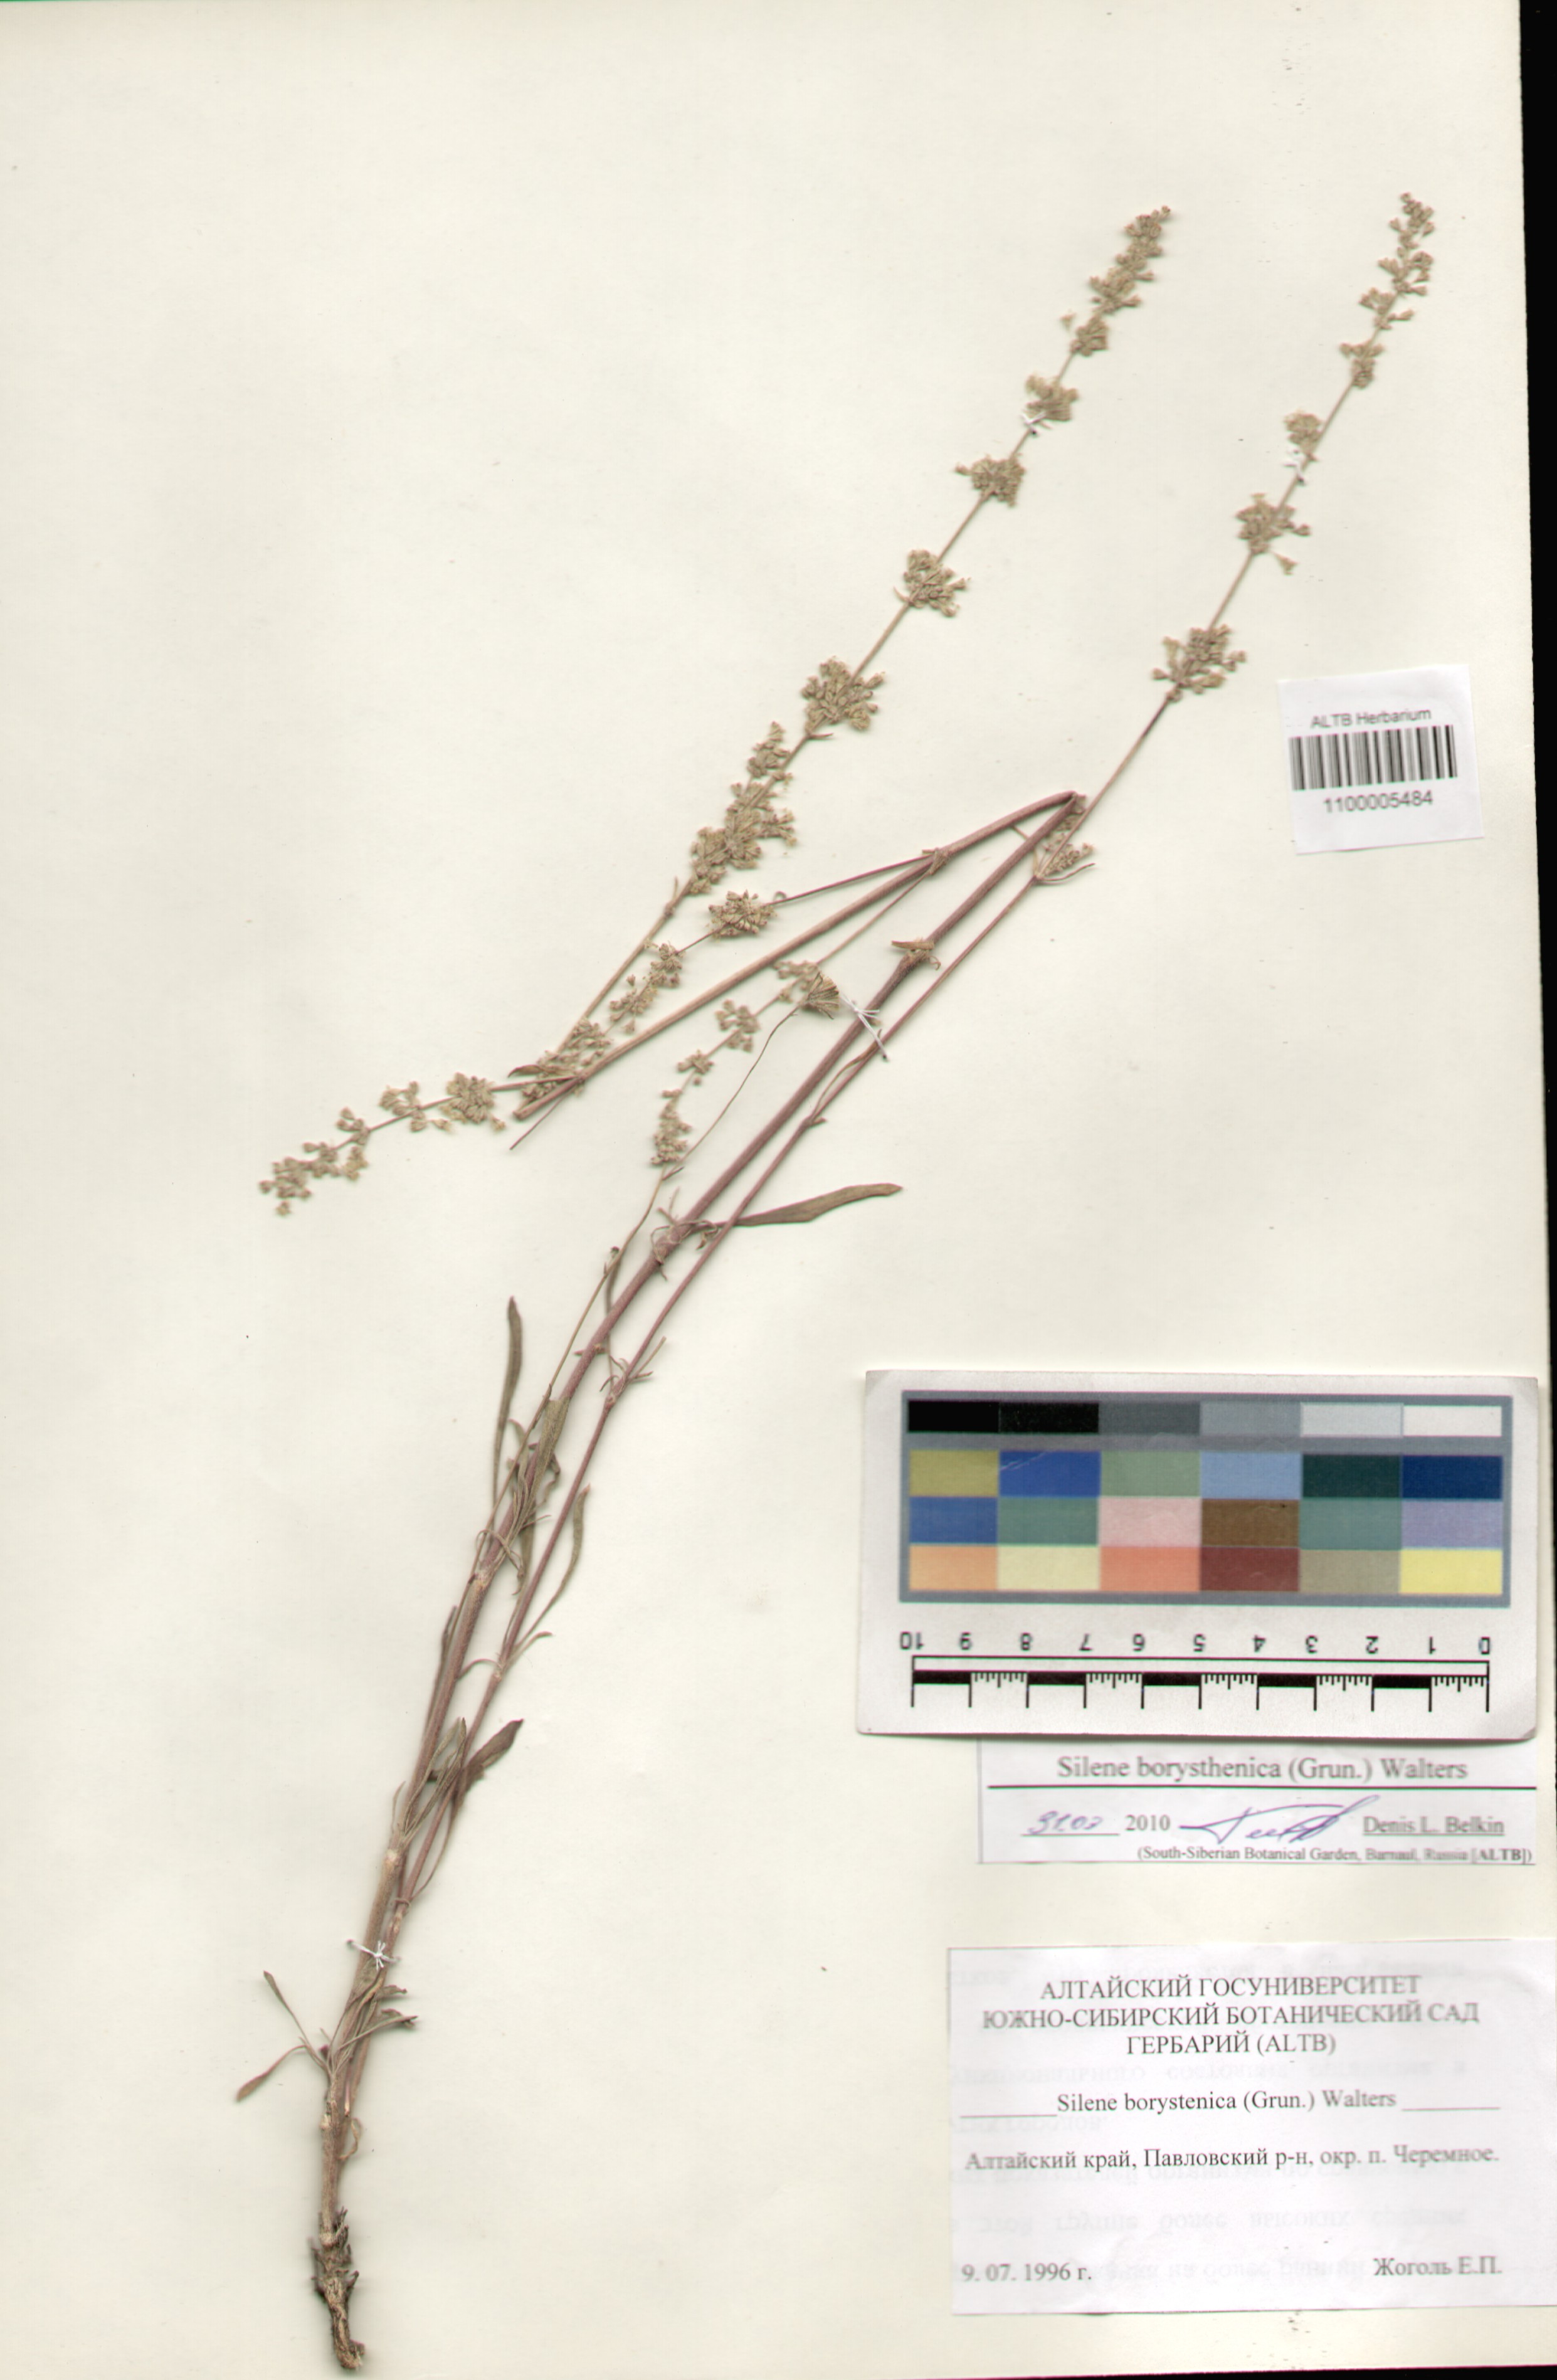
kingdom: Plantae
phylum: Tracheophyta
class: Magnoliopsida
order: Caryophyllales
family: Caryophyllaceae
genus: Silene
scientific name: Silene borysthenica
